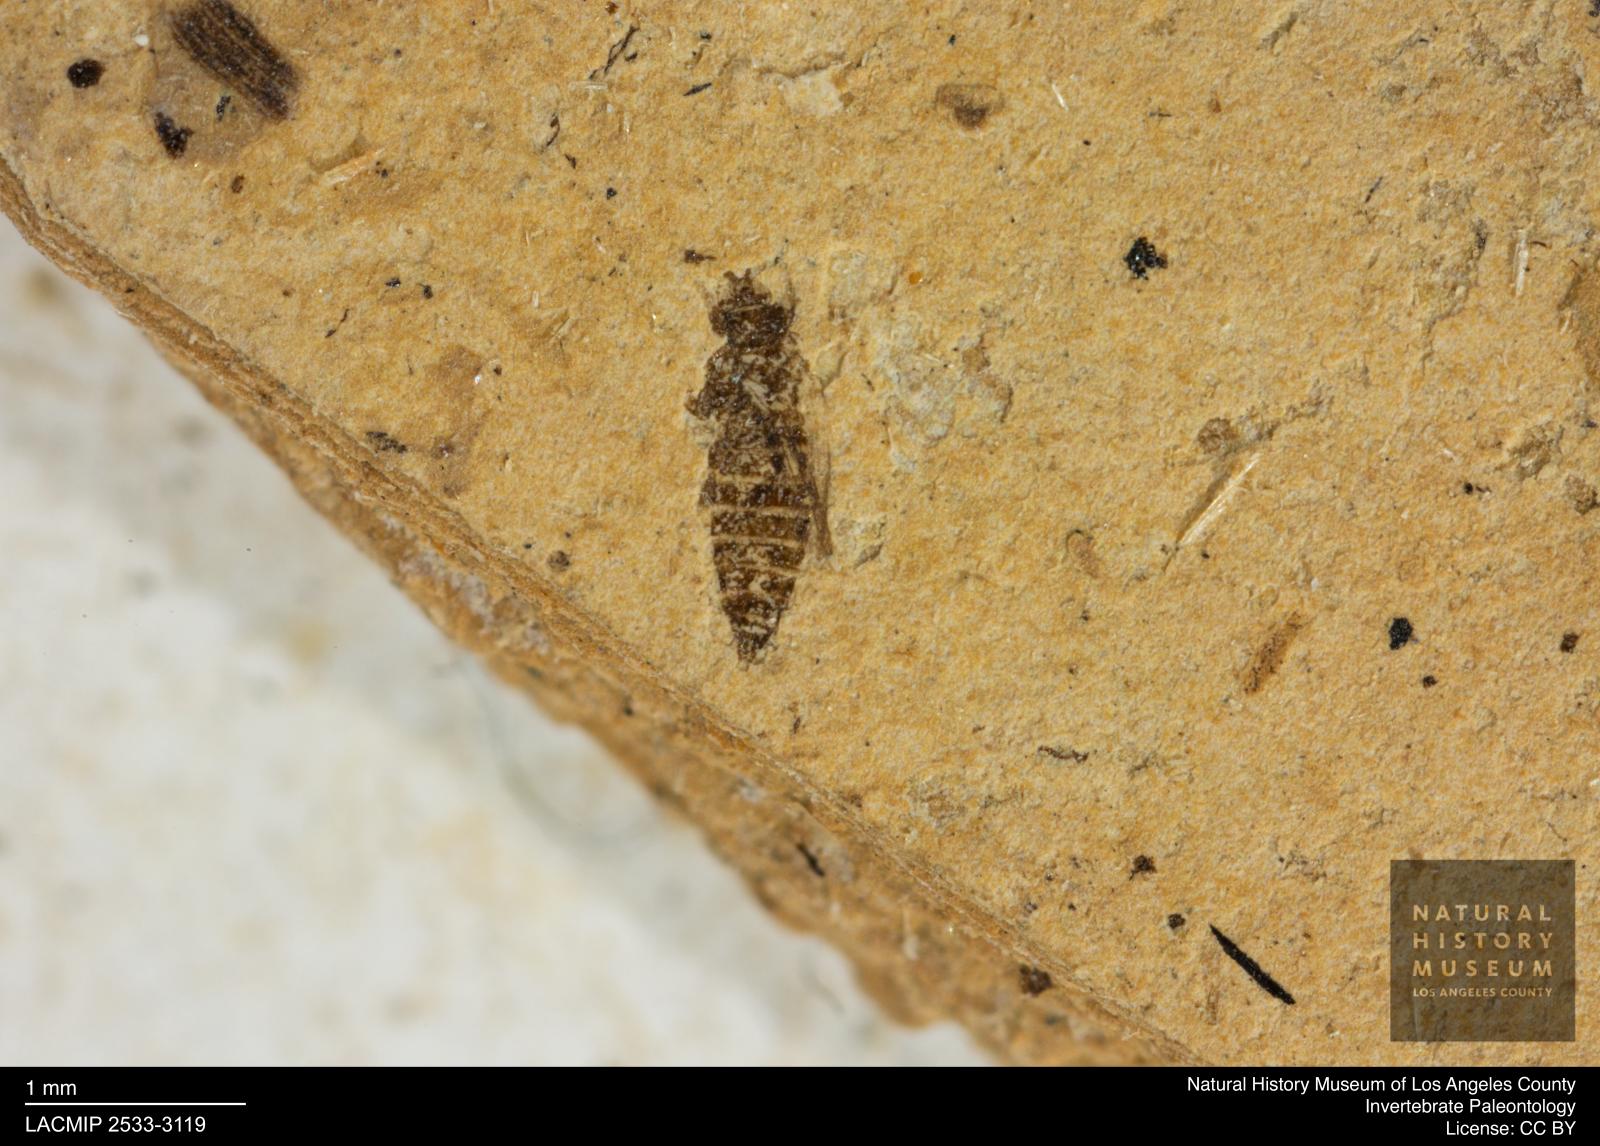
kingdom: Animalia
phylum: Arthropoda
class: Insecta
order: Thysanoptera
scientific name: Thysanoptera
